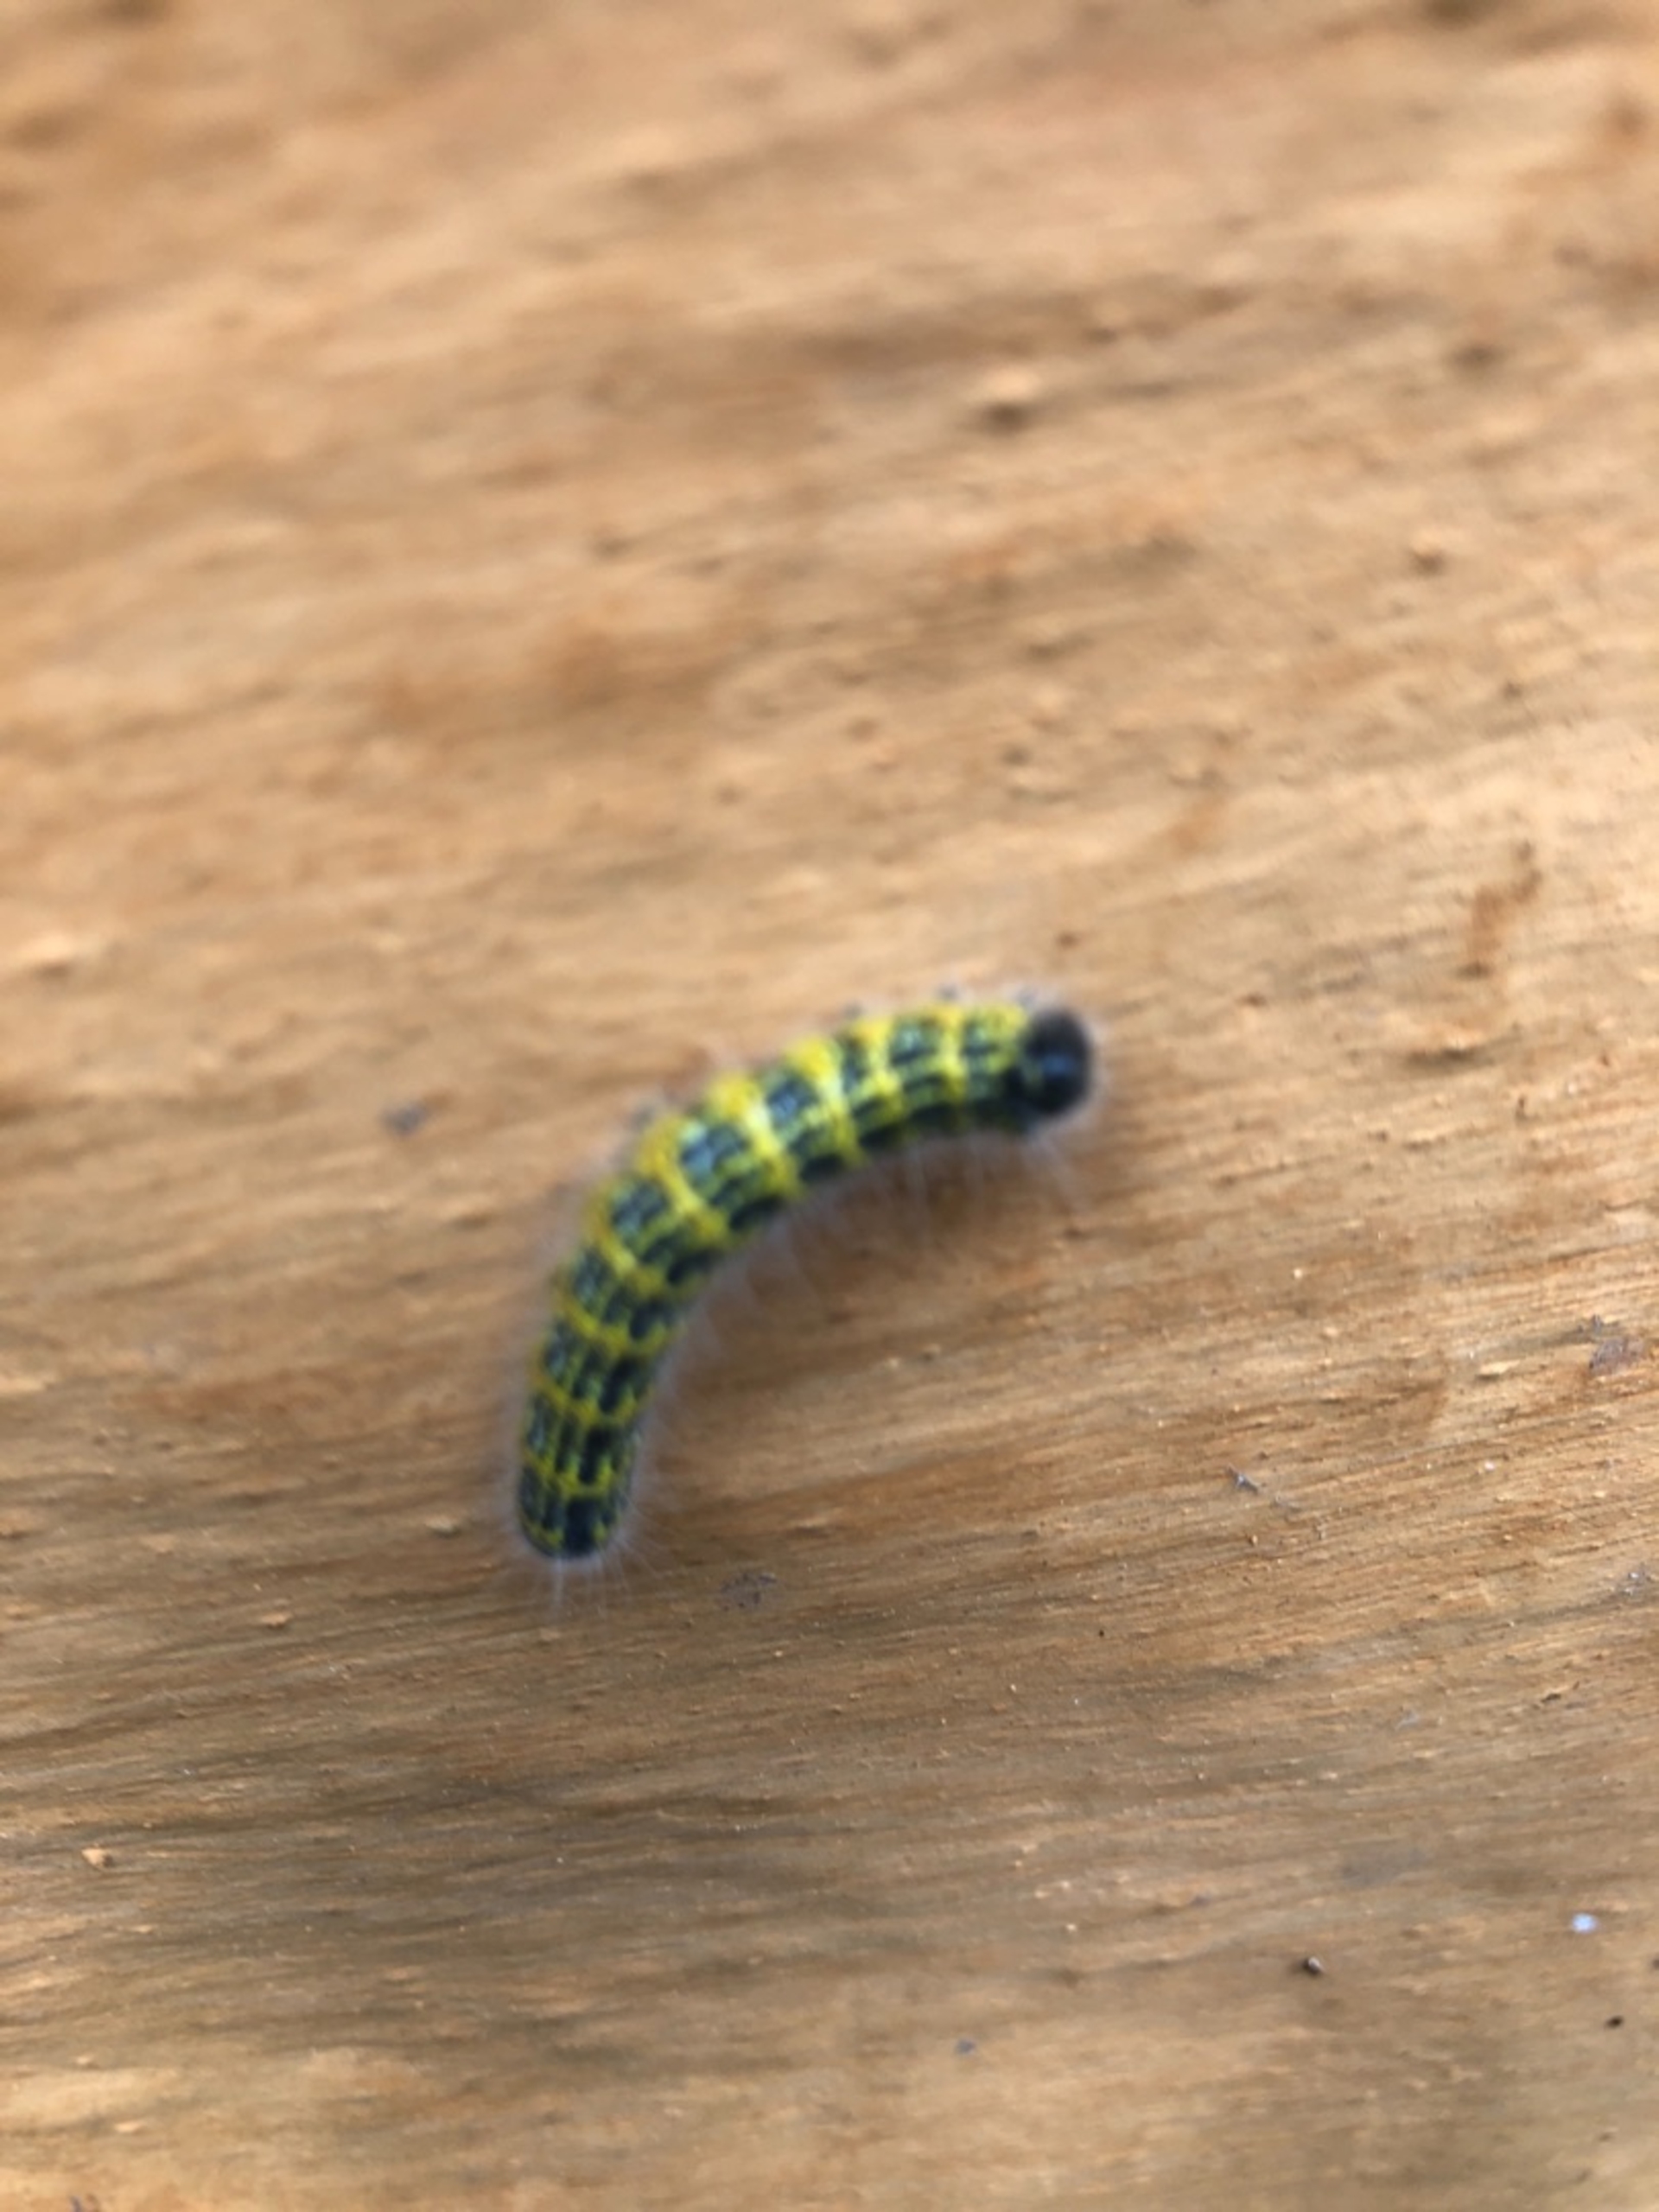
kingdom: Animalia
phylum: Arthropoda
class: Insecta
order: Lepidoptera
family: Notodontidae
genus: Phalera
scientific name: Phalera bucephala
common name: Måneplet
